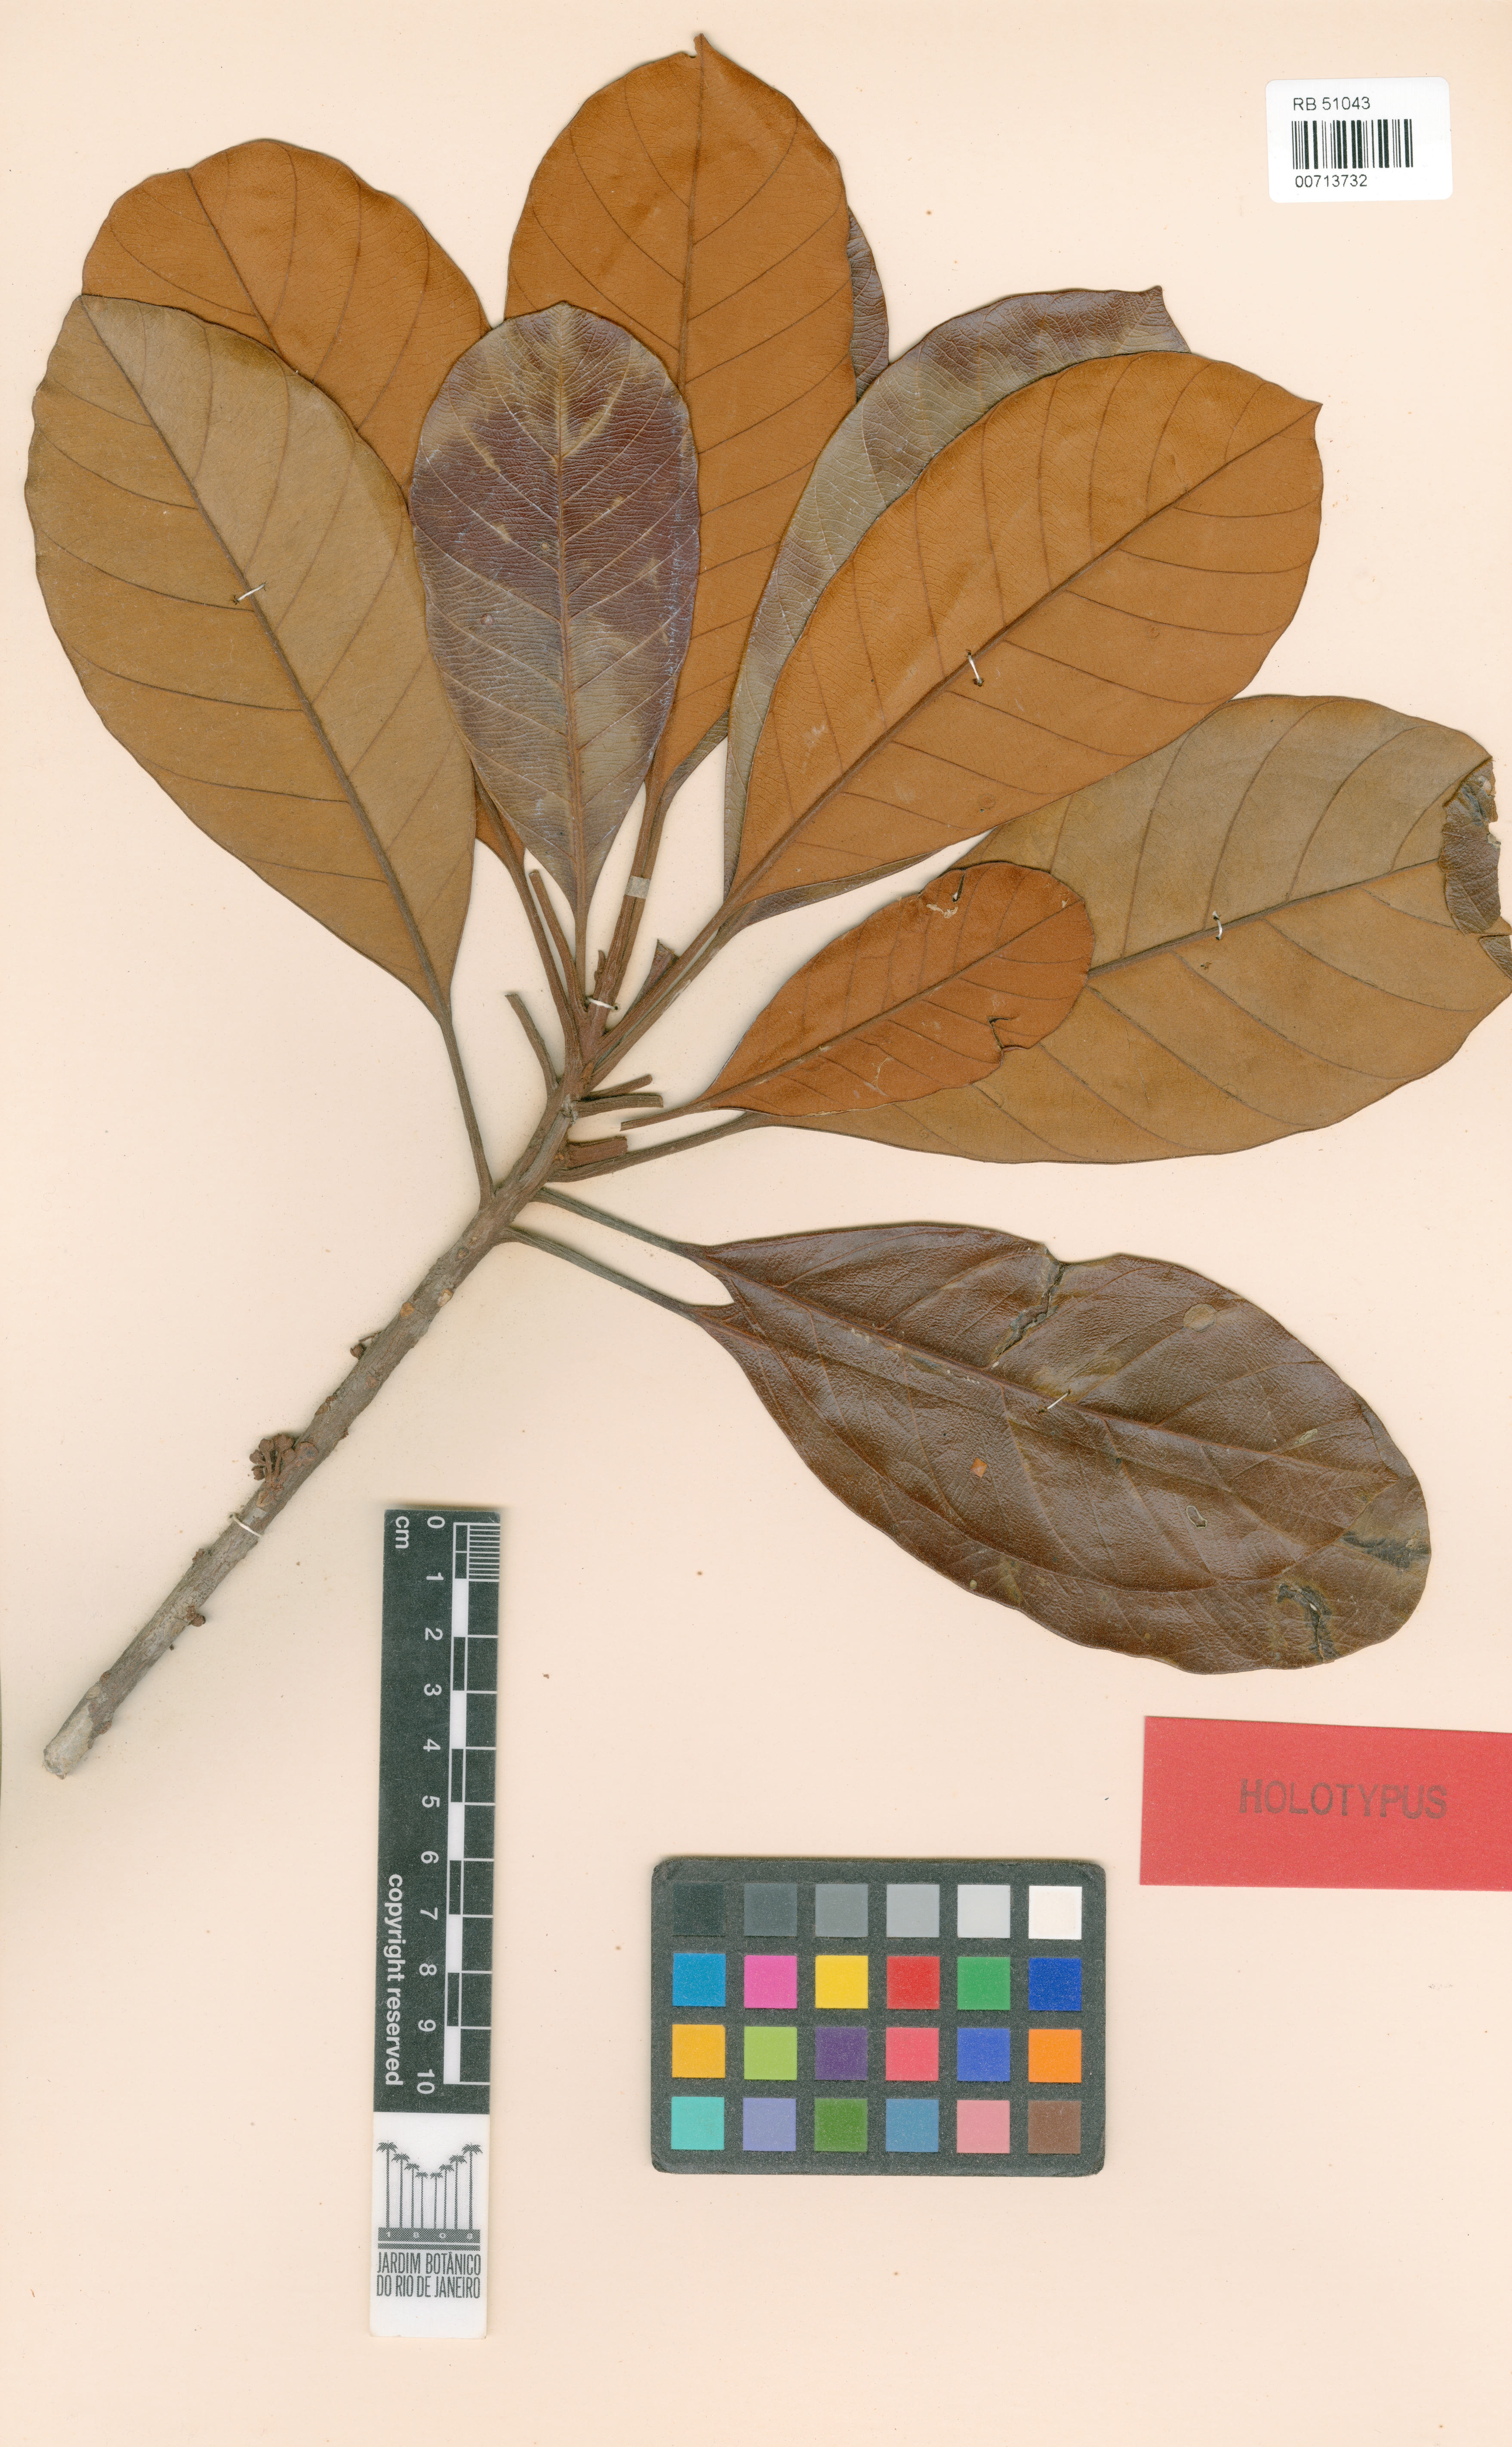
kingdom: Plantae
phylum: Tracheophyta
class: Magnoliopsida
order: Ericales
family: Sapotaceae
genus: Chrysophyllum
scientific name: Chrysophyllum prieurii
